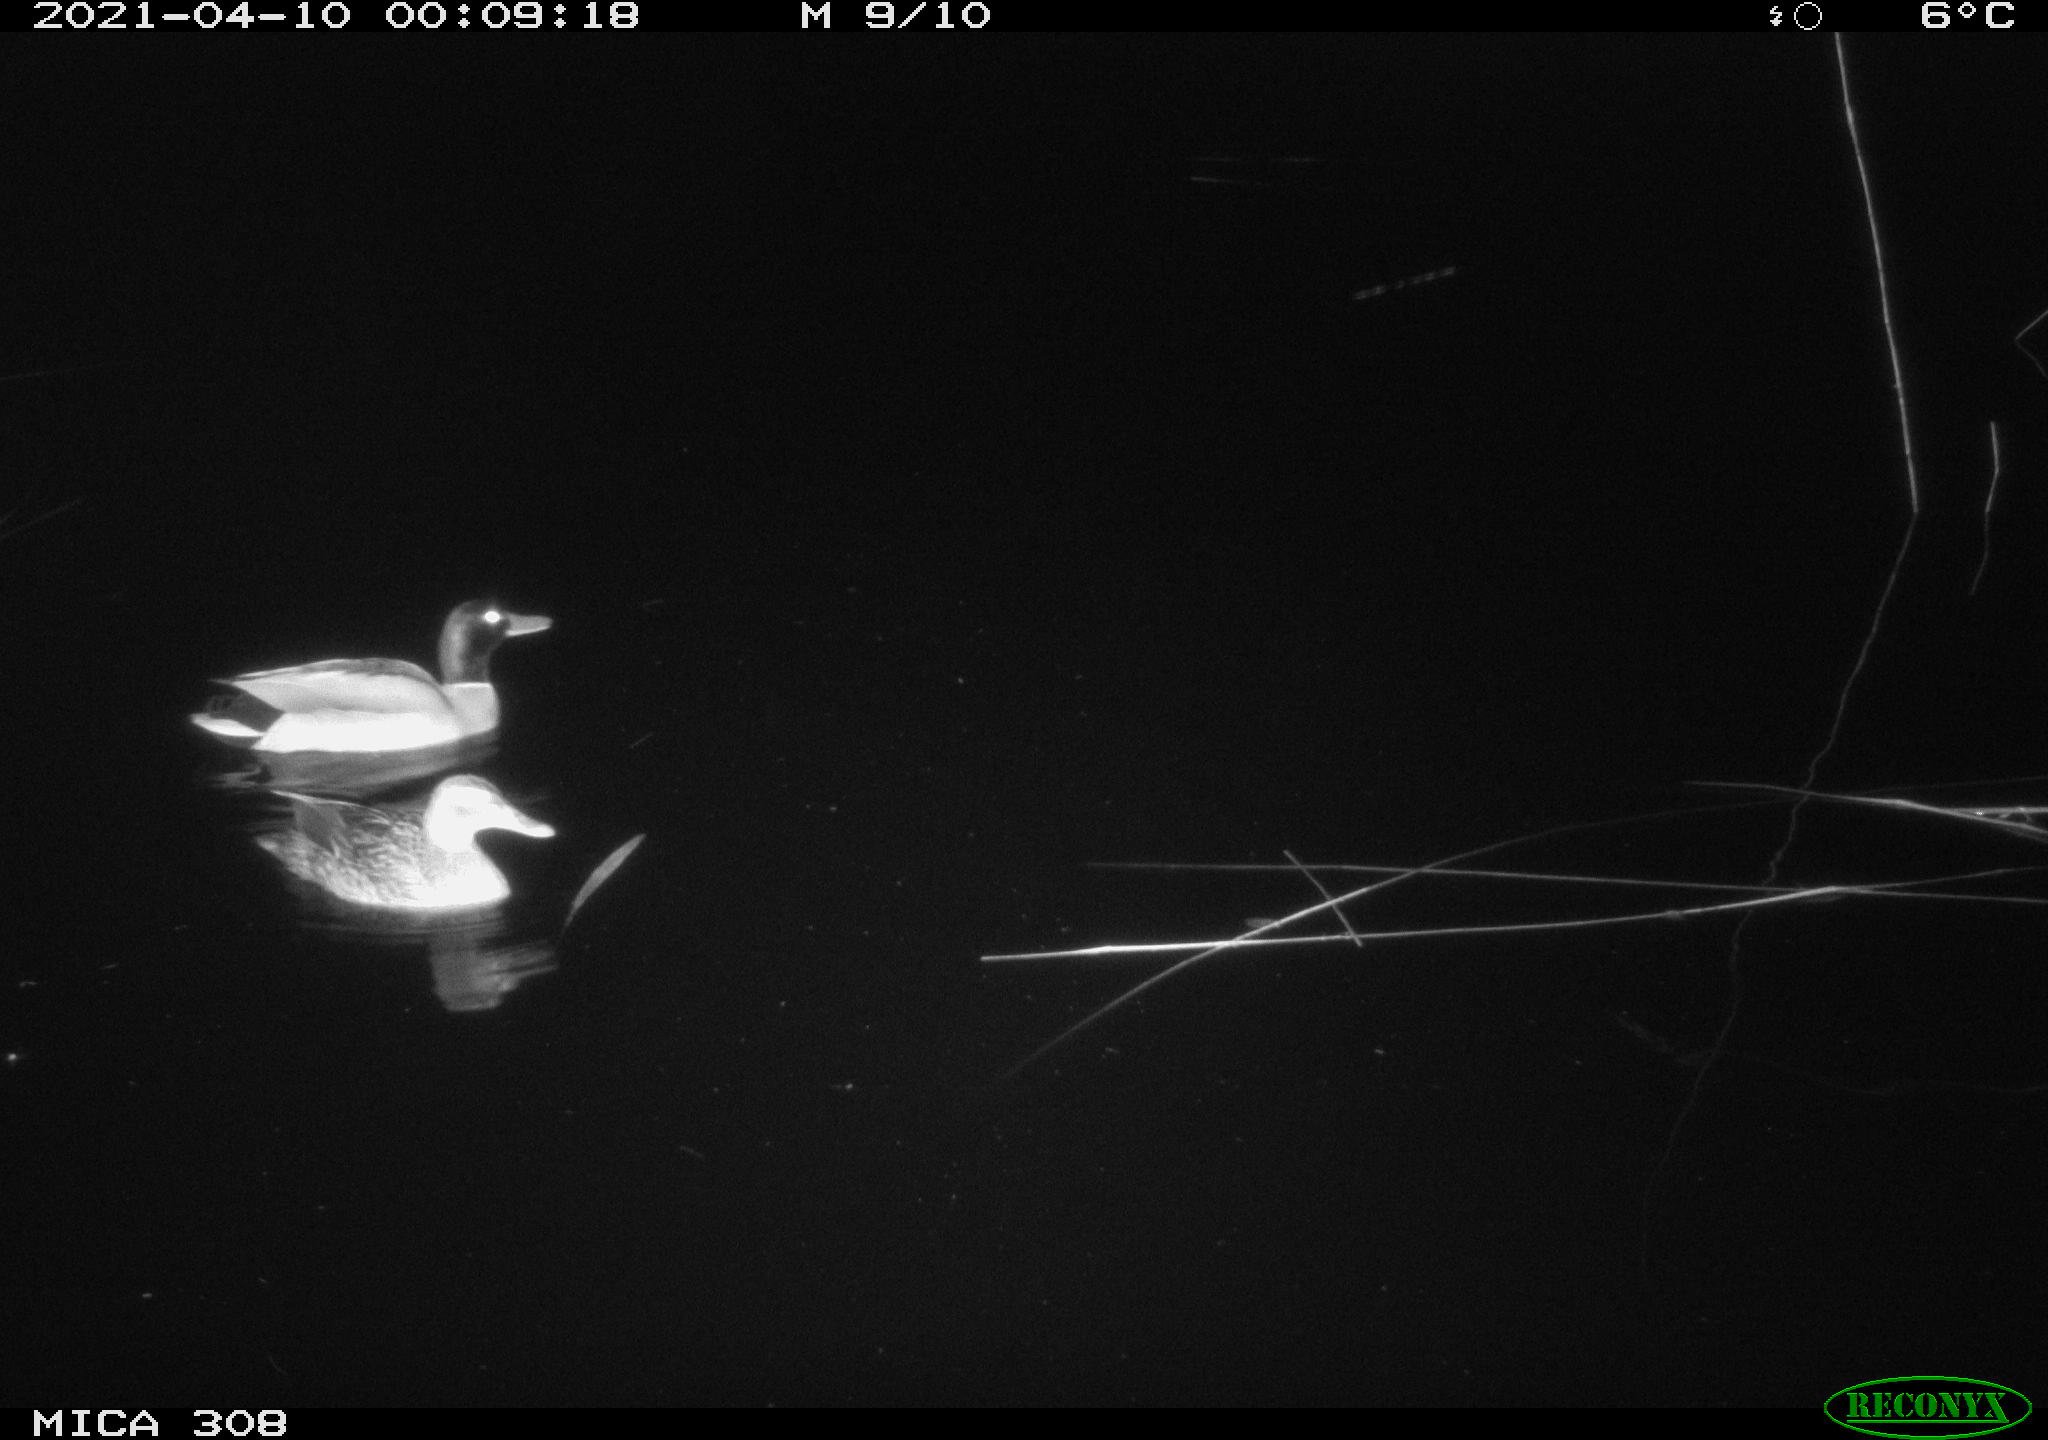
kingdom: Animalia
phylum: Chordata
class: Aves
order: Gruiformes
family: Rallidae
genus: Gallinula
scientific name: Gallinula chloropus
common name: Common moorhen
